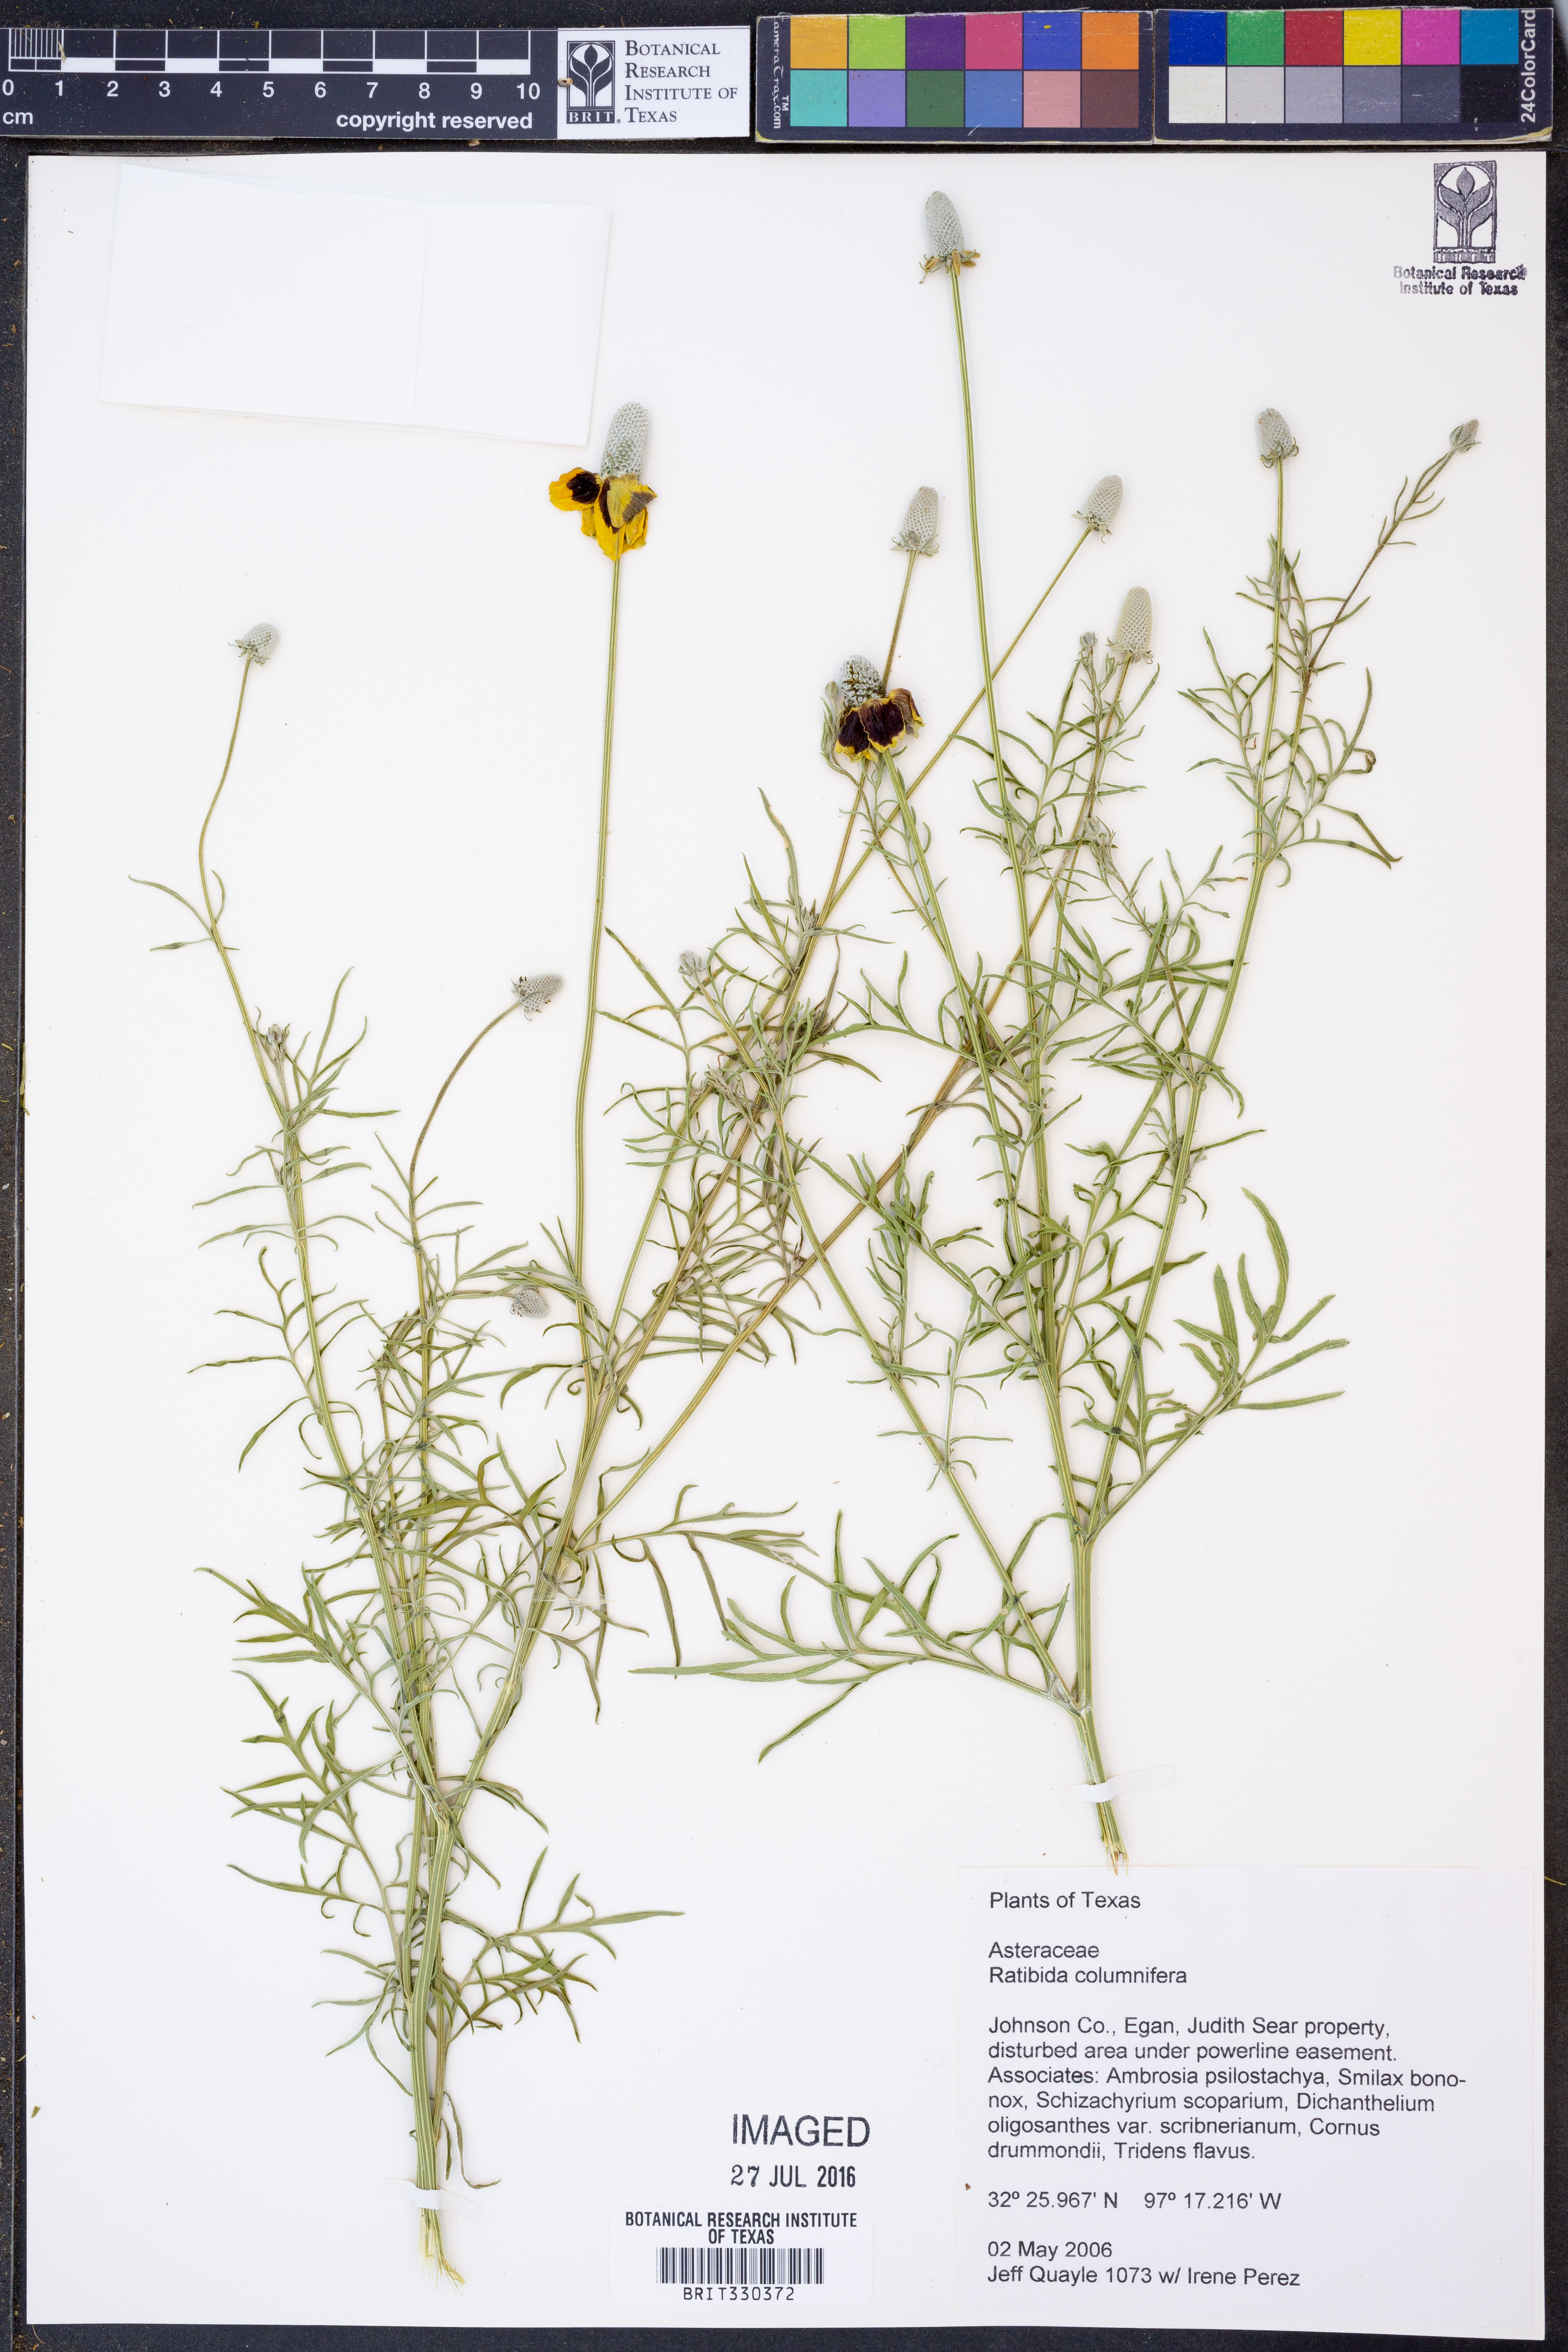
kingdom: Plantae
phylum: Tracheophyta
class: Magnoliopsida
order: Asterales
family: Asteraceae
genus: Ratibida
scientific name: Ratibida columnifera
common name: Prairie coneflower
